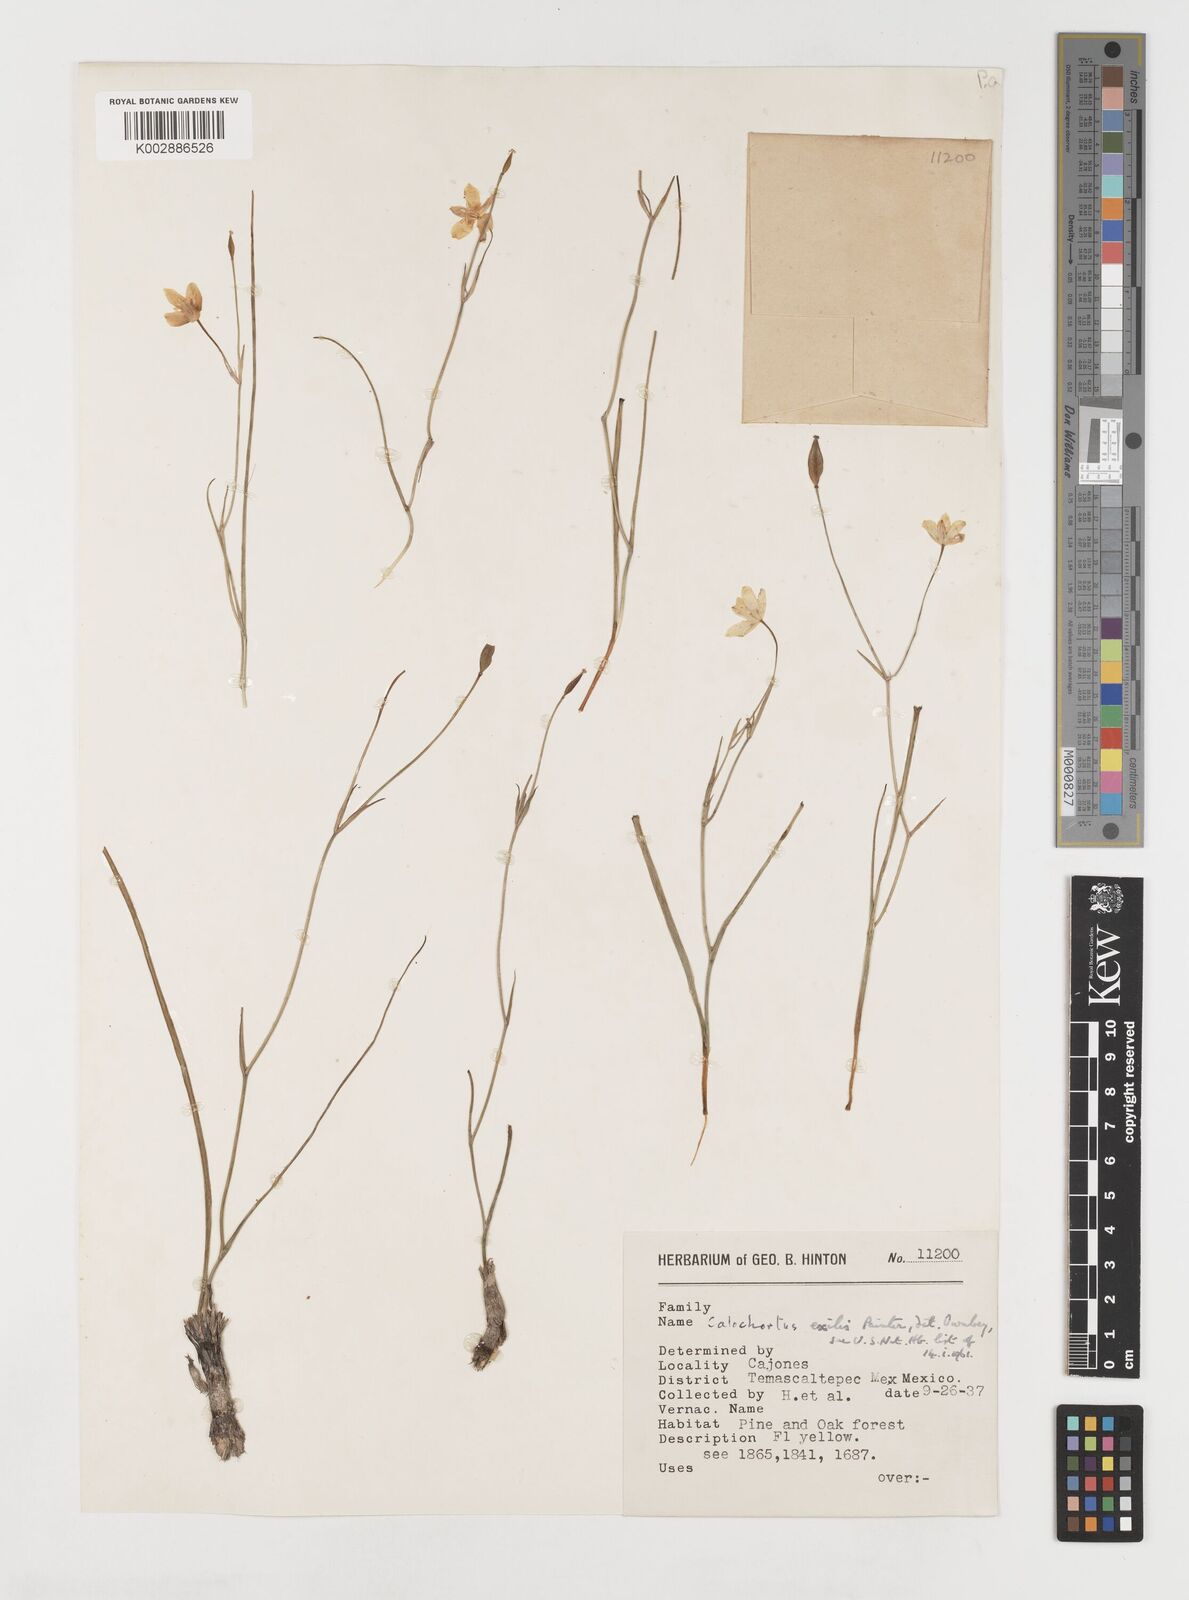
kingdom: Plantae
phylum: Tracheophyta
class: Liliopsida
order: Liliales
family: Liliaceae
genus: Calochortus
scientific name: Calochortus exilis
